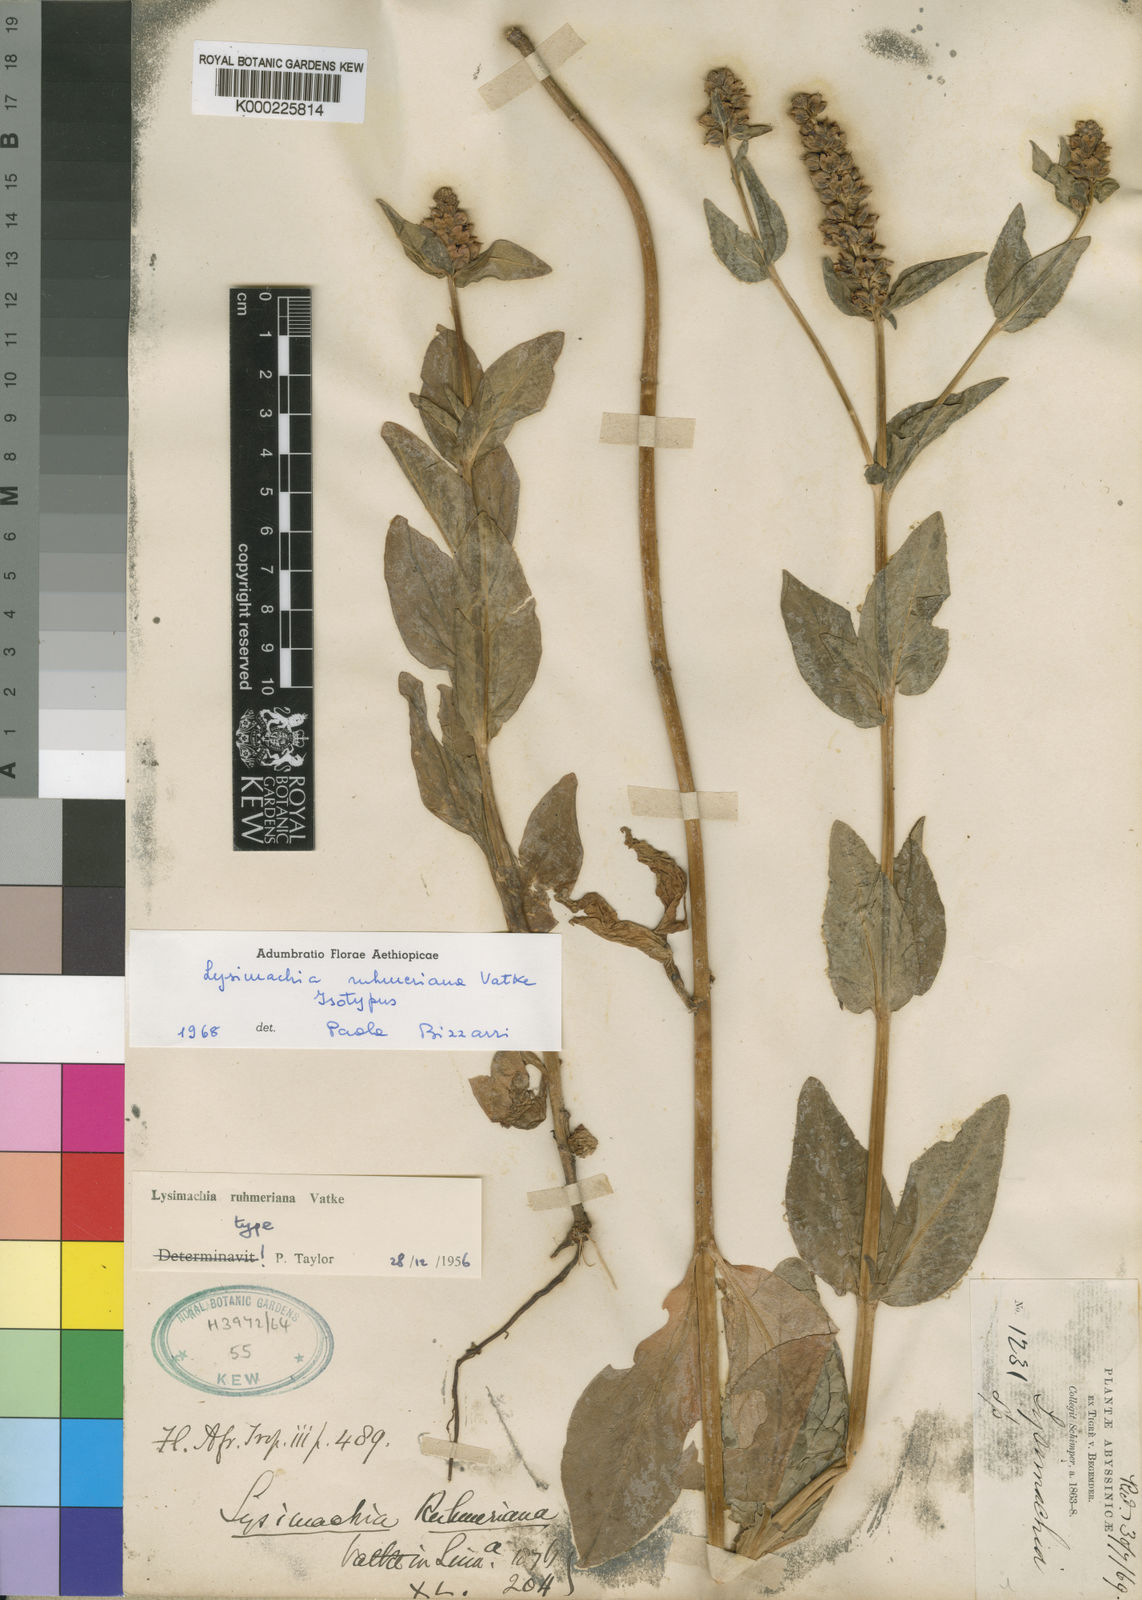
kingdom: Plantae
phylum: Tracheophyta
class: Magnoliopsida
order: Ericales
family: Primulaceae
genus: Lysimachia
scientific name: Lysimachia ruhmeriana
